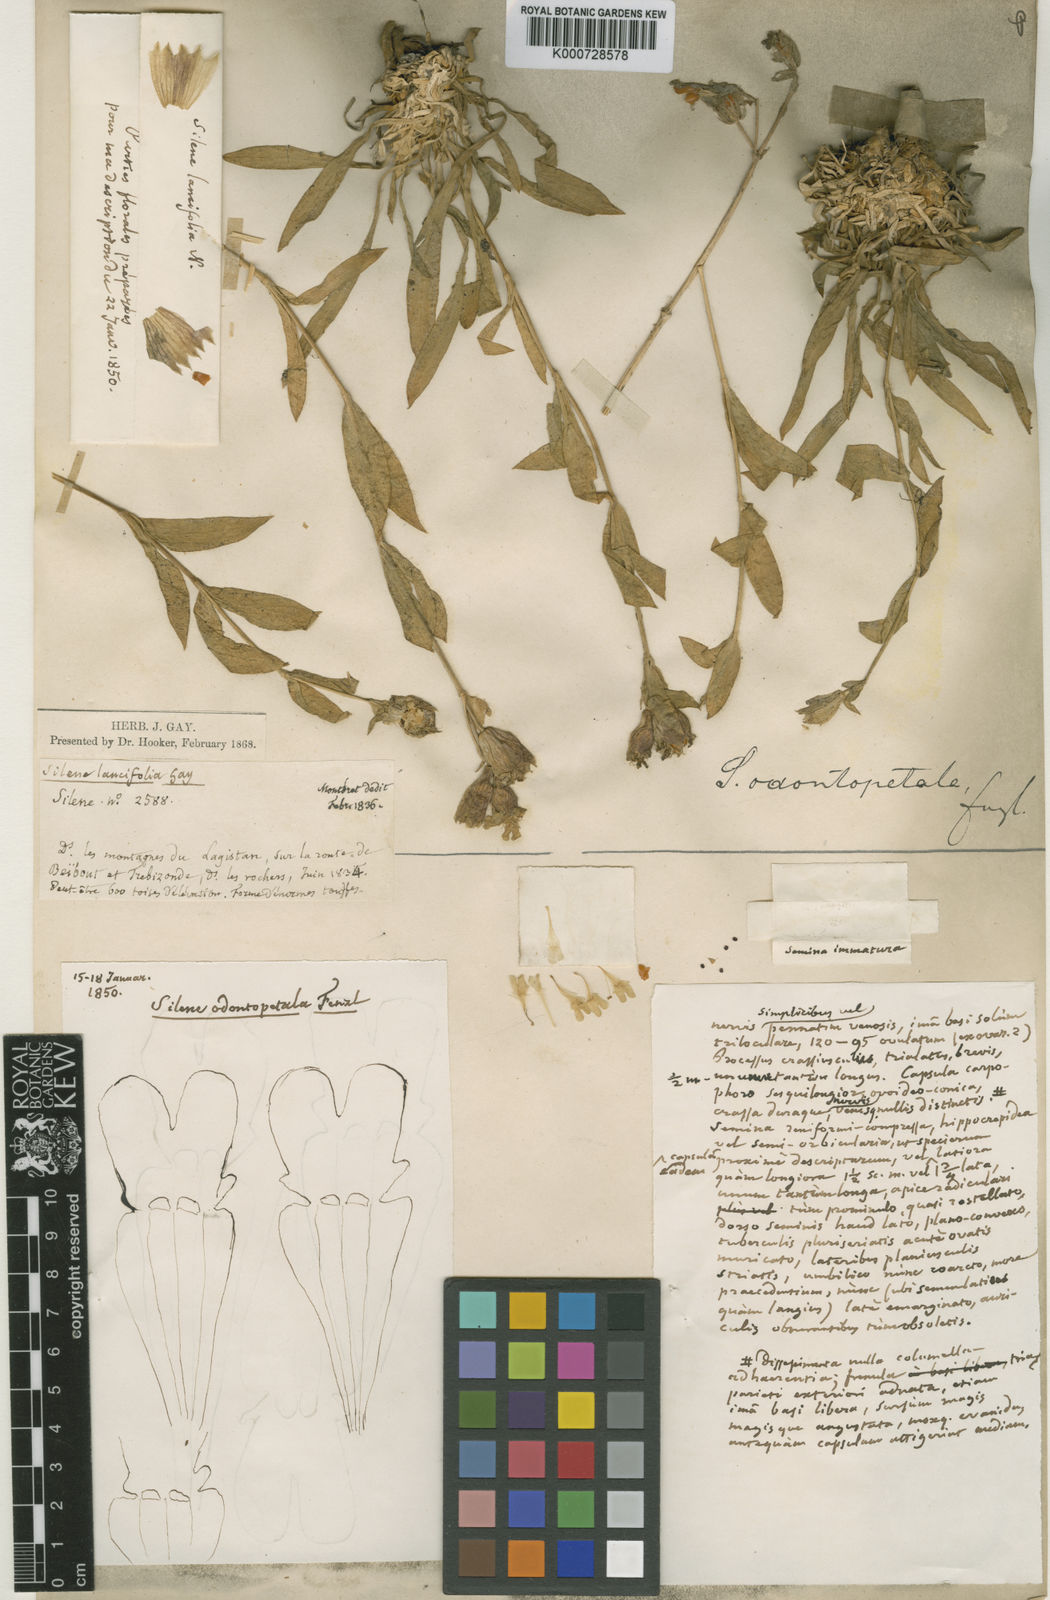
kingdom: Plantae
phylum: Tracheophyta
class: Magnoliopsida
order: Caryophyllales
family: Caryophyllaceae
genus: Silene
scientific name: Silene odontopetala
